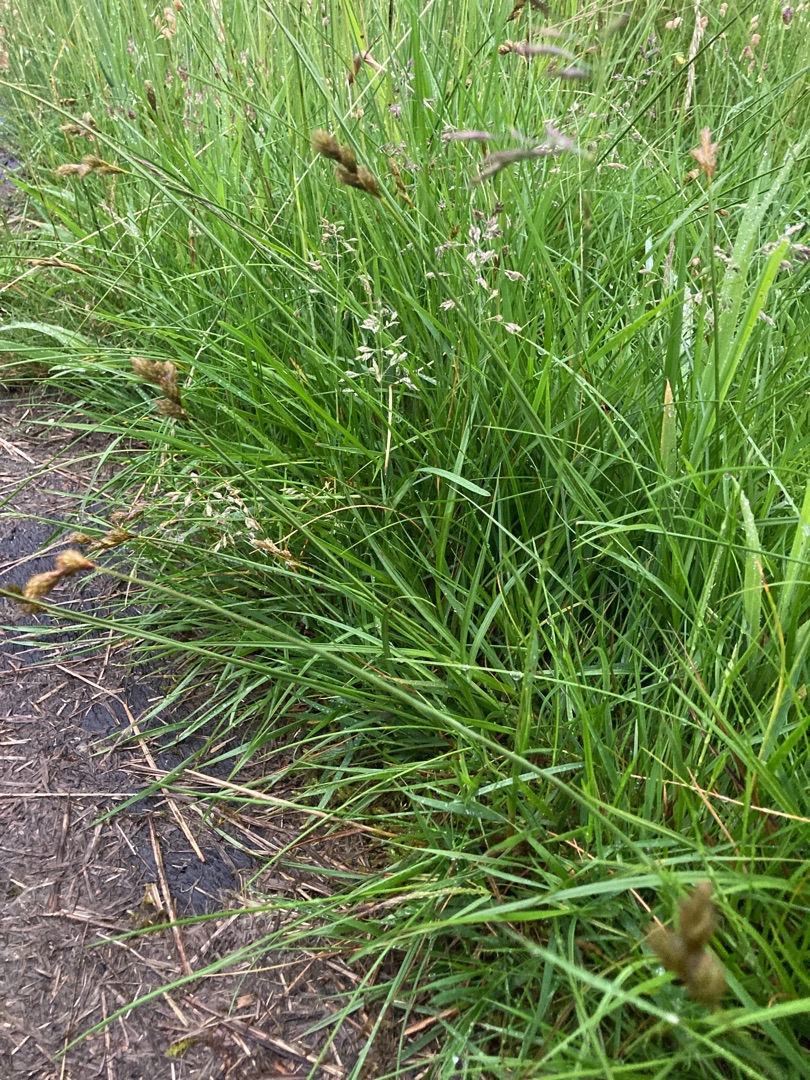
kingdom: Plantae
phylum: Tracheophyta
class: Liliopsida
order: Poales
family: Cyperaceae
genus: Carex
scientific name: Carex leporina
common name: Hare-star
